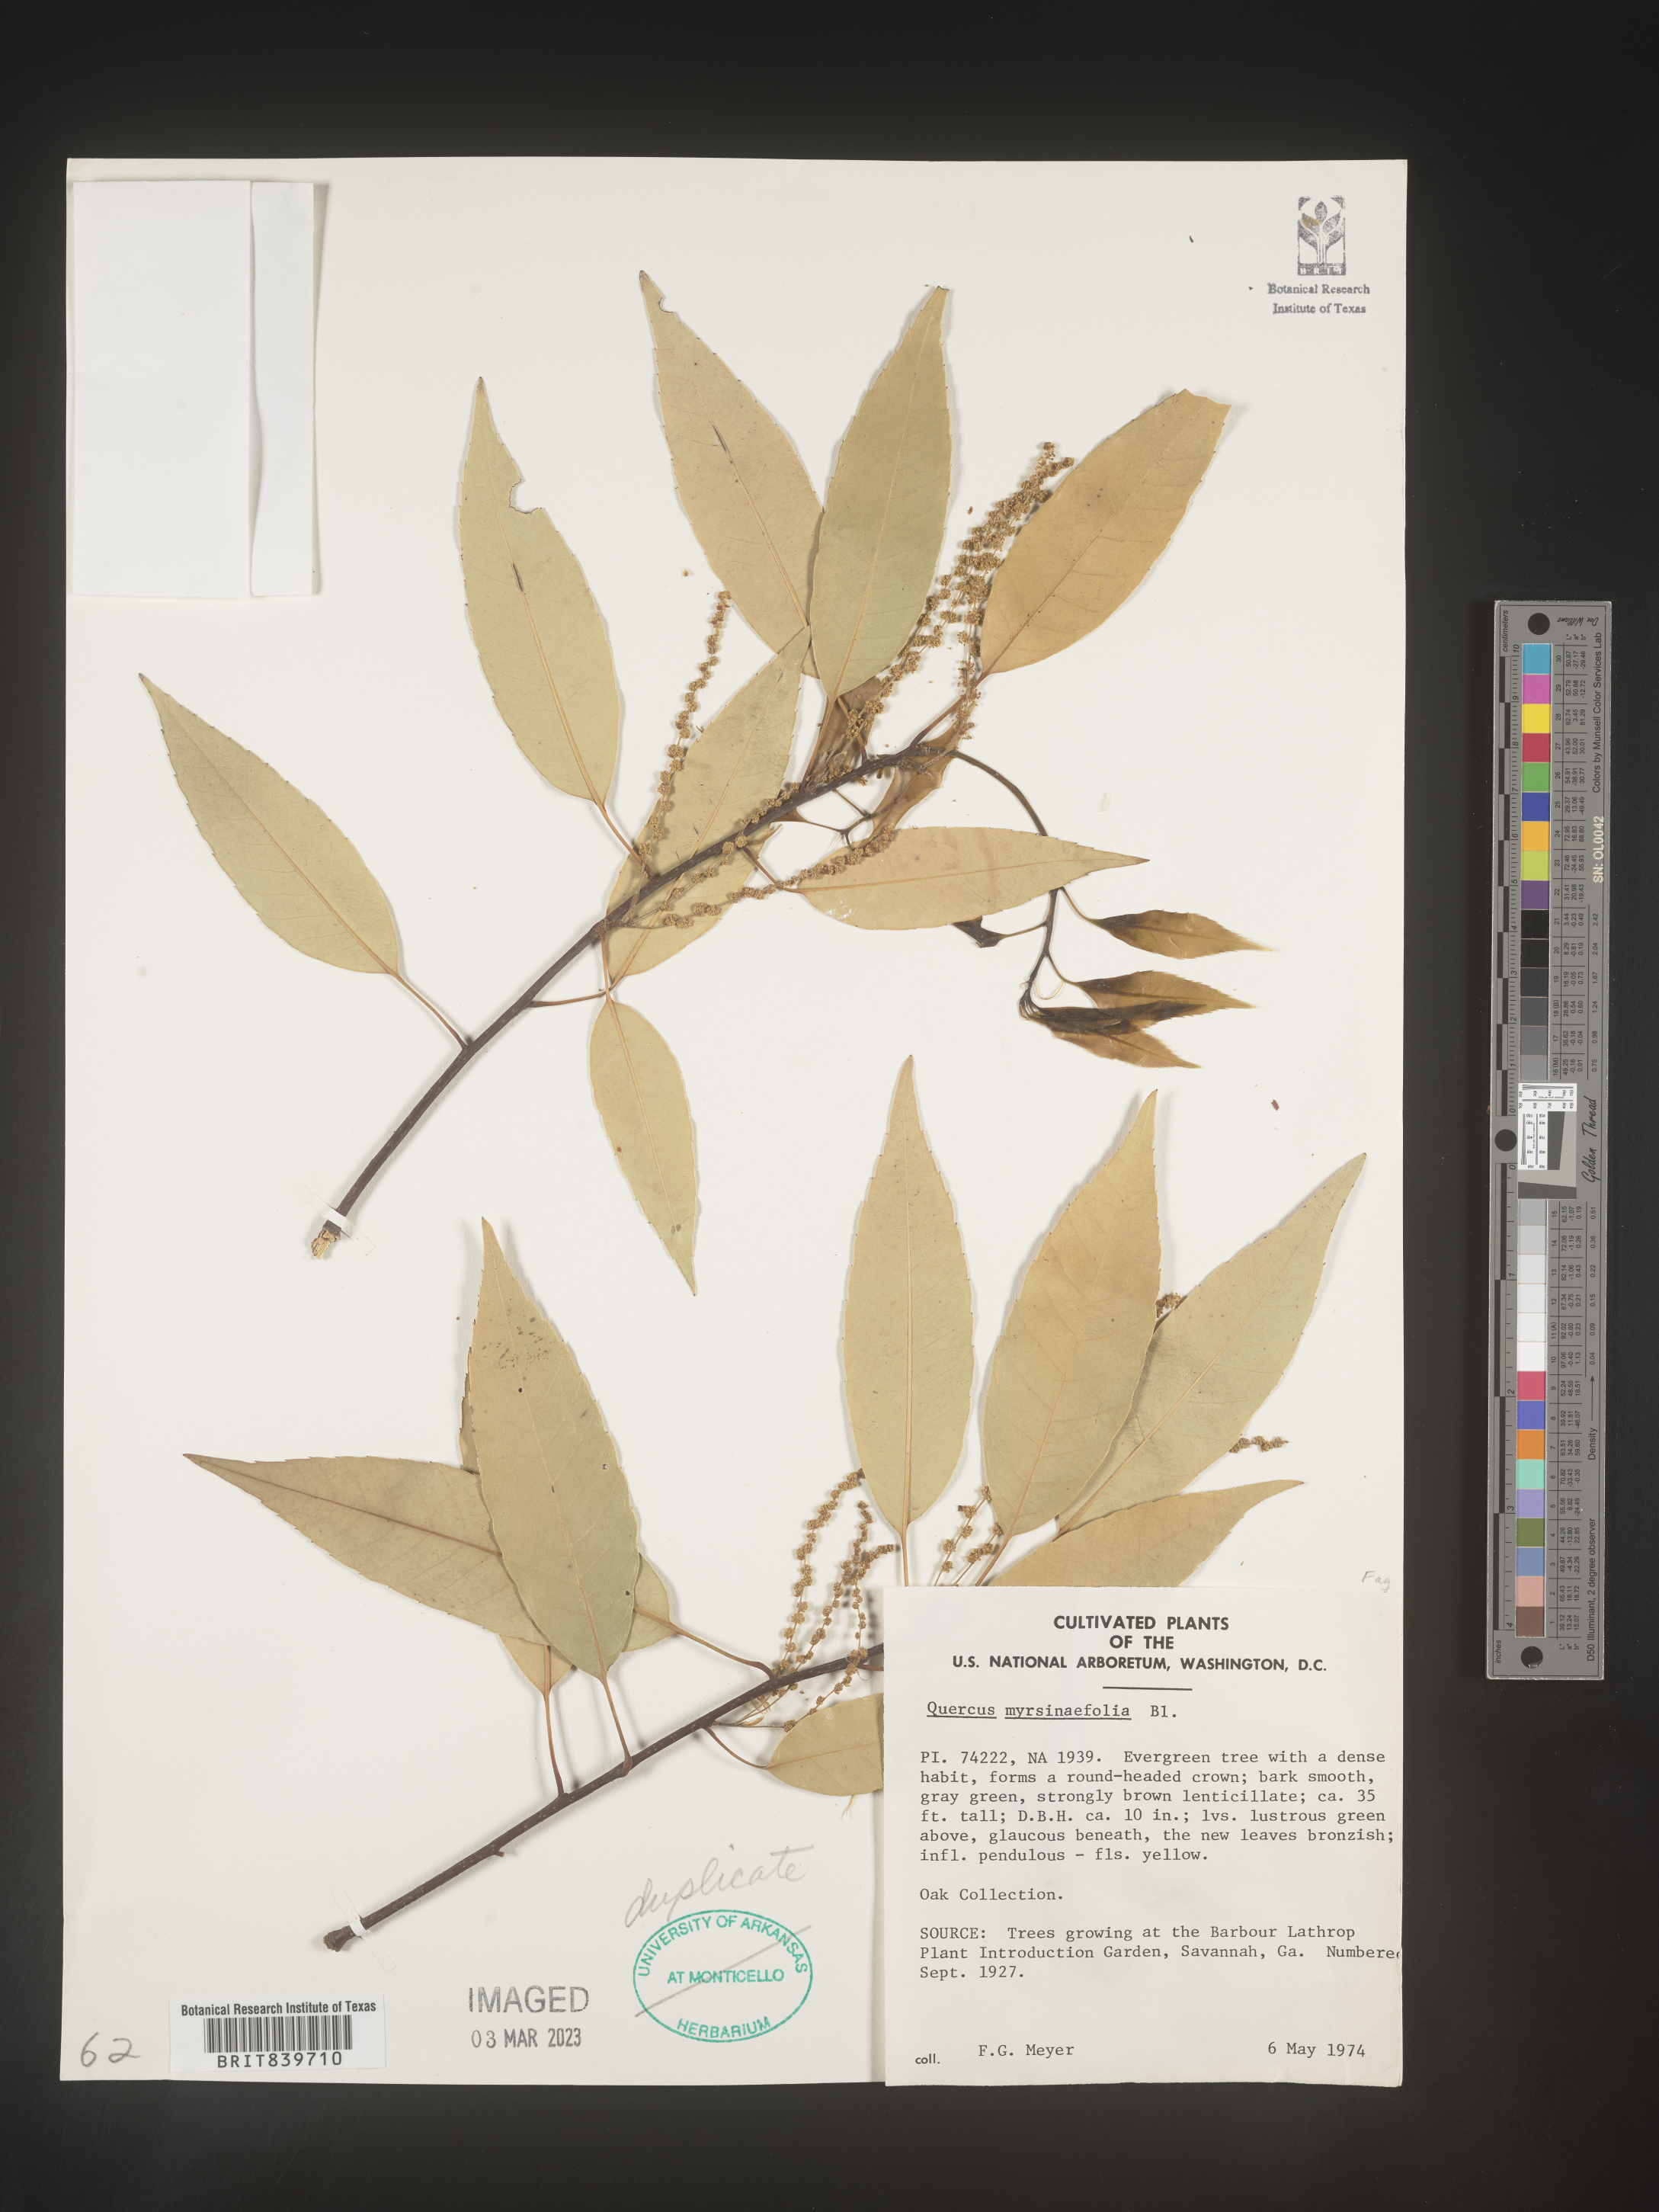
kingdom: Plantae
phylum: Tracheophyta
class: Magnoliopsida
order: Fagales
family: Fagaceae
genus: Quercus
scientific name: Quercus
